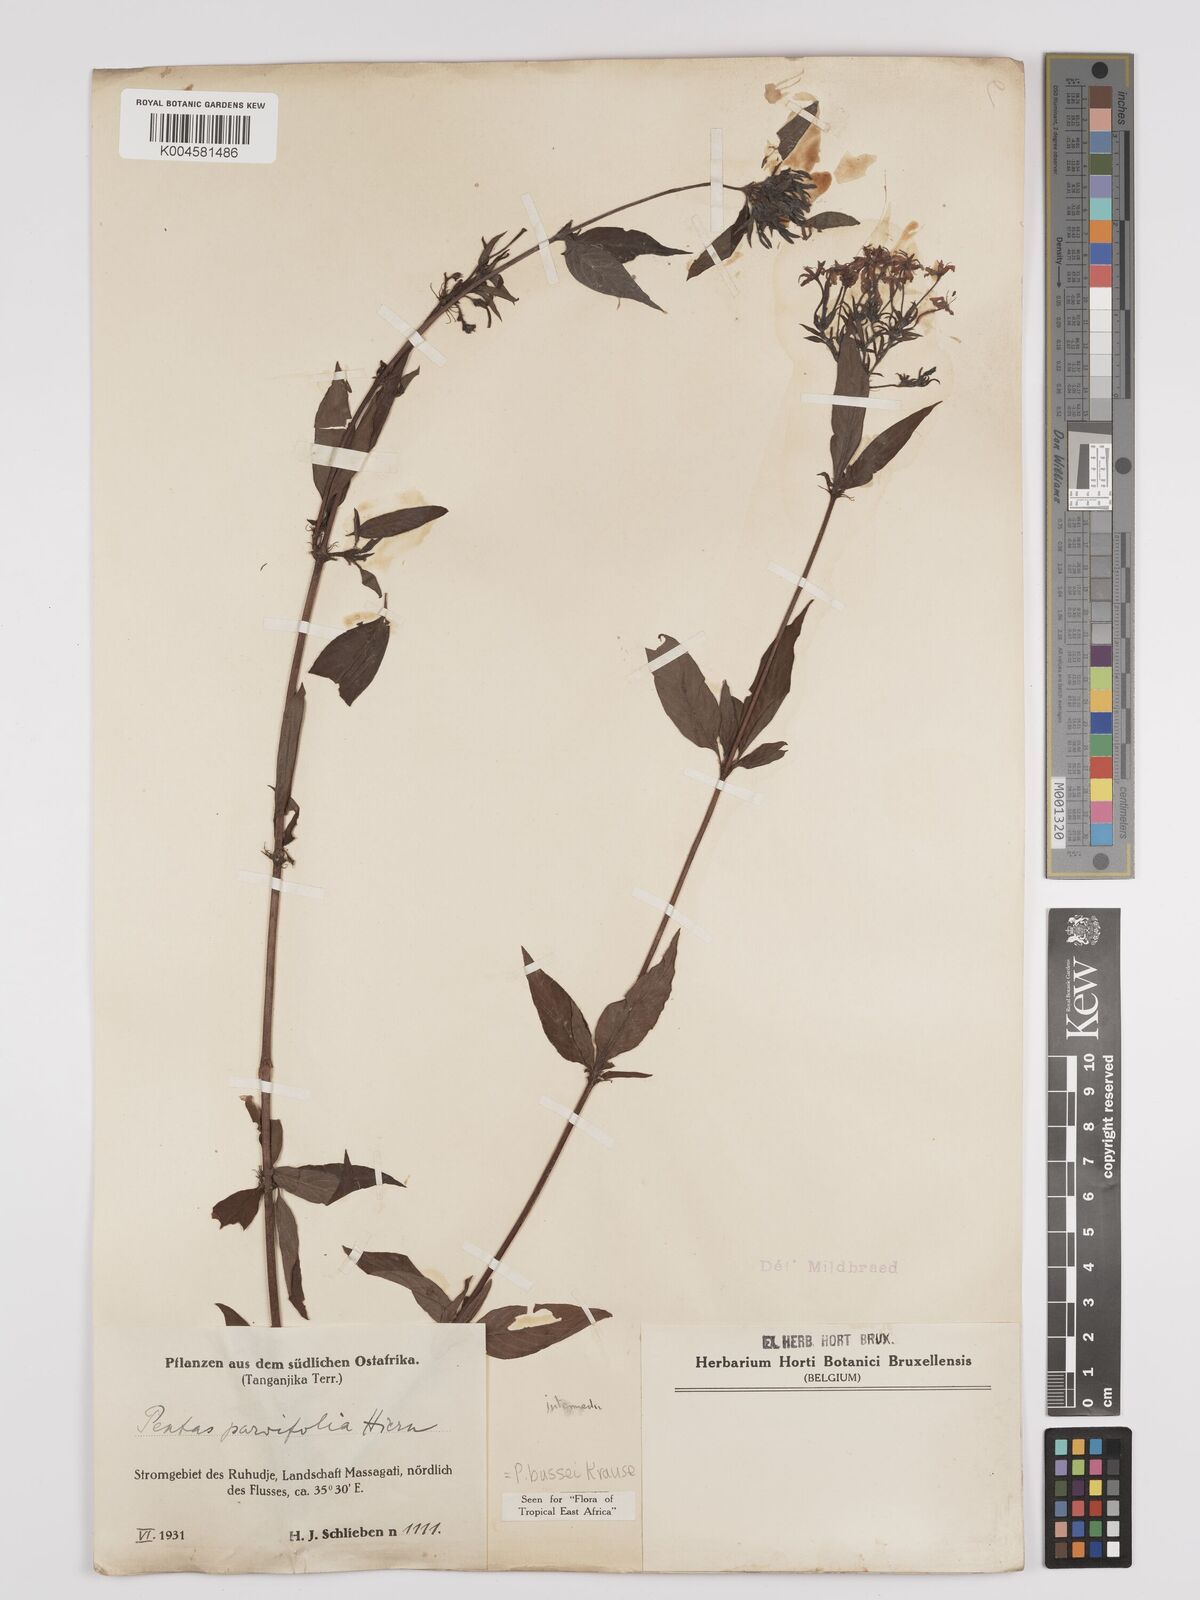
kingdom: Plantae
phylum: Tracheophyta
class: Magnoliopsida
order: Gentianales
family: Rubiaceae
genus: Rhodopentas
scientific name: Rhodopentas bussei
